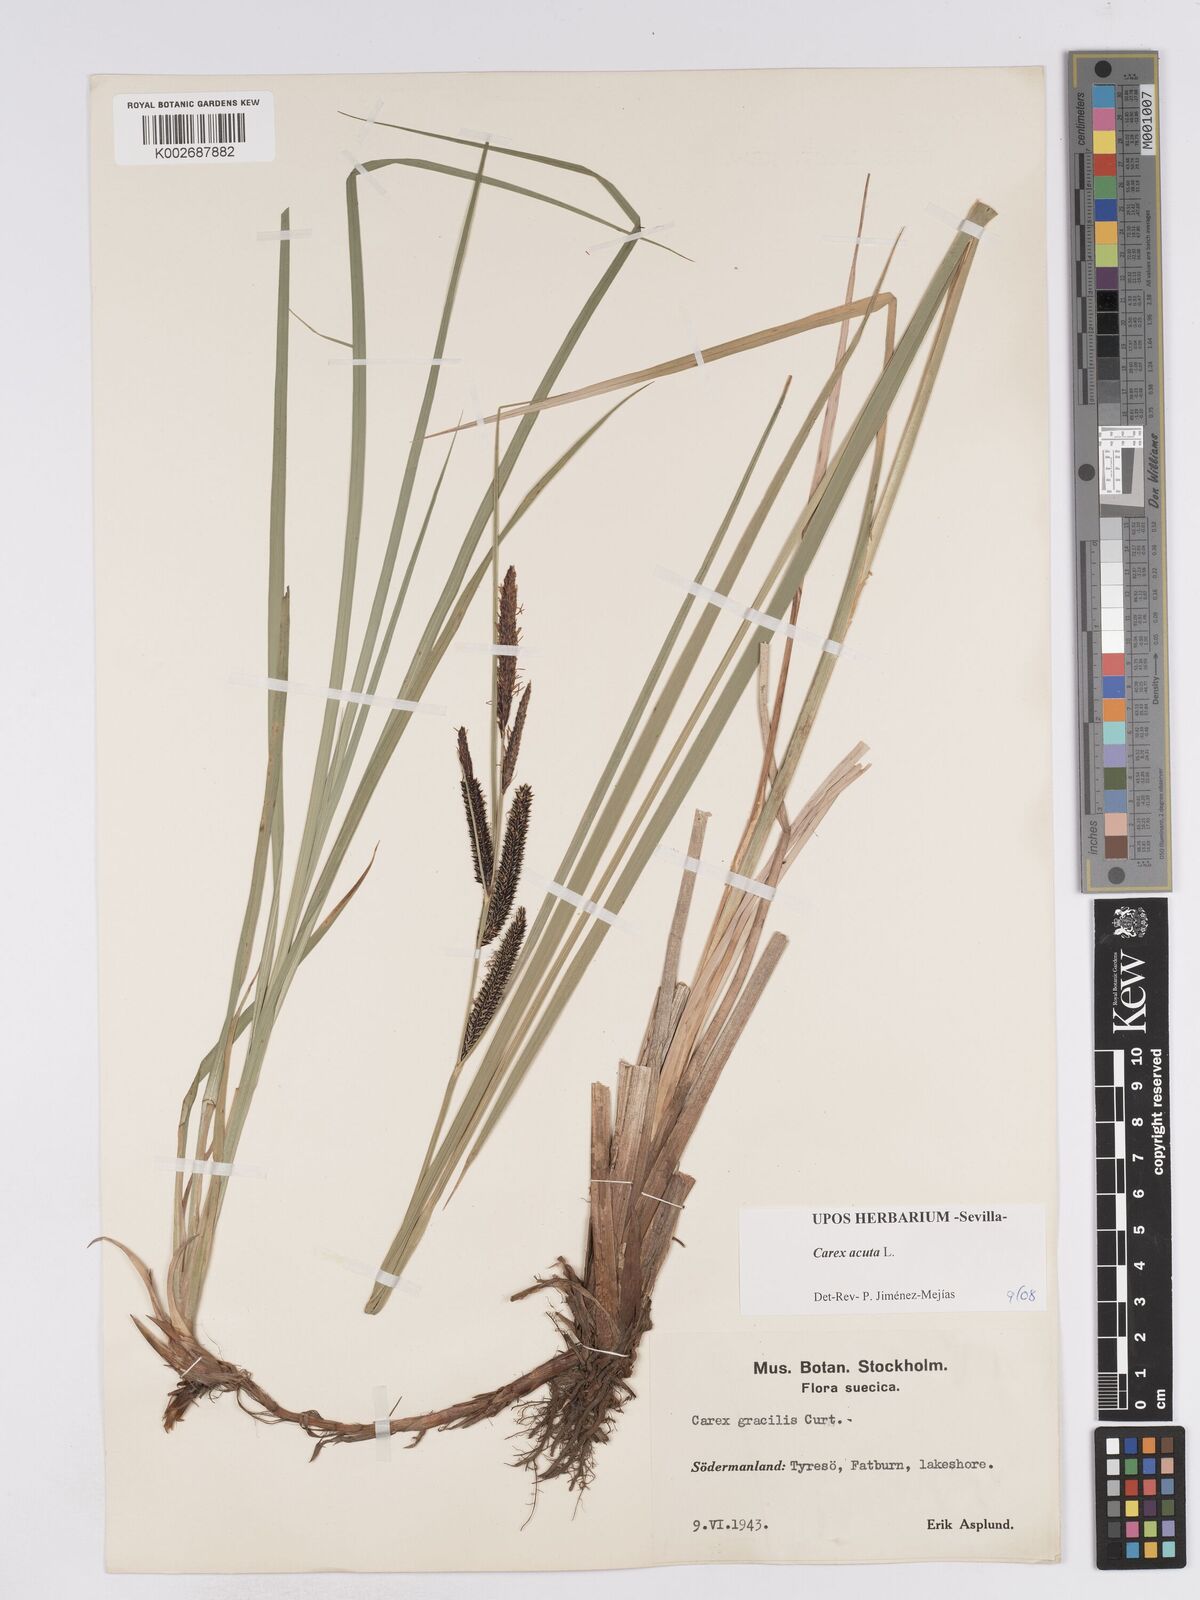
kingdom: Plantae
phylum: Tracheophyta
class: Liliopsida
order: Poales
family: Cyperaceae
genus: Carex
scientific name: Carex acuta
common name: Slender tufted-sedge
